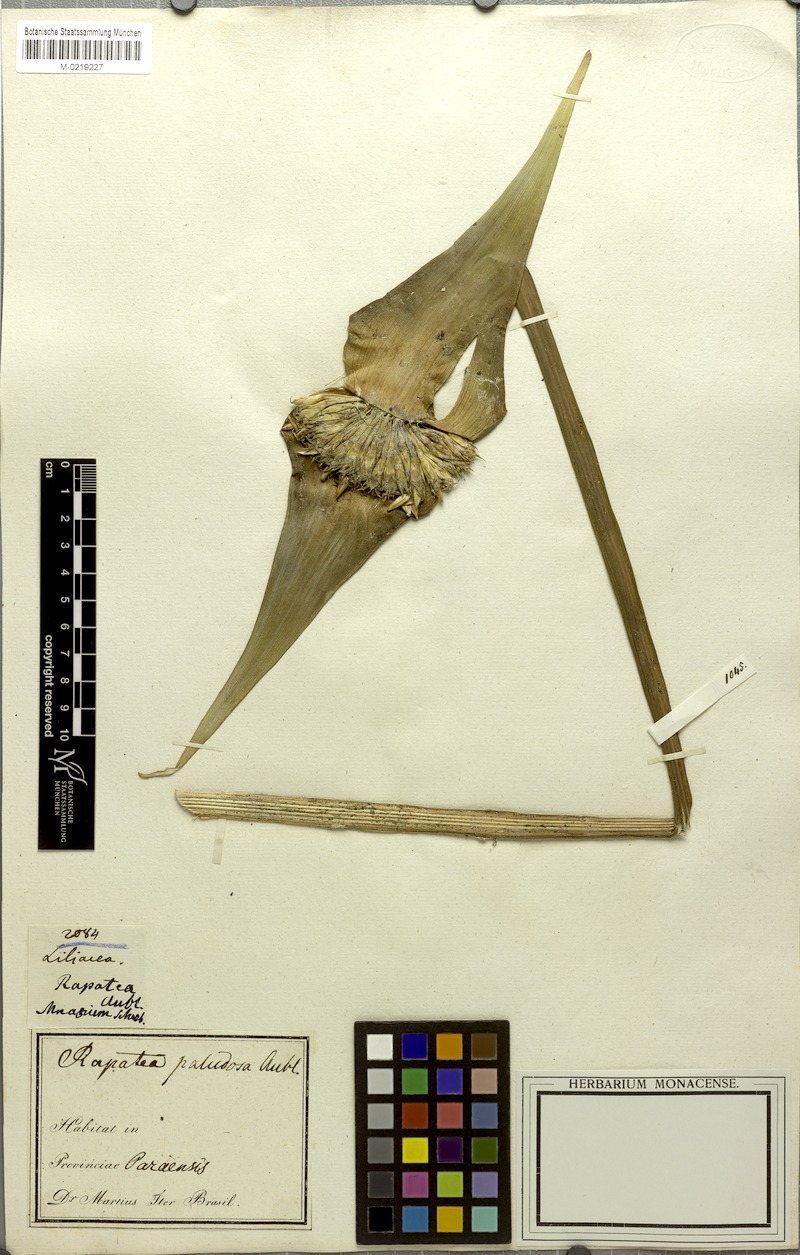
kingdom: Plantae
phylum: Tracheophyta
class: Liliopsida
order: Poales
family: Rapateaceae
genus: Rapatea
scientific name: Rapatea paludosa
